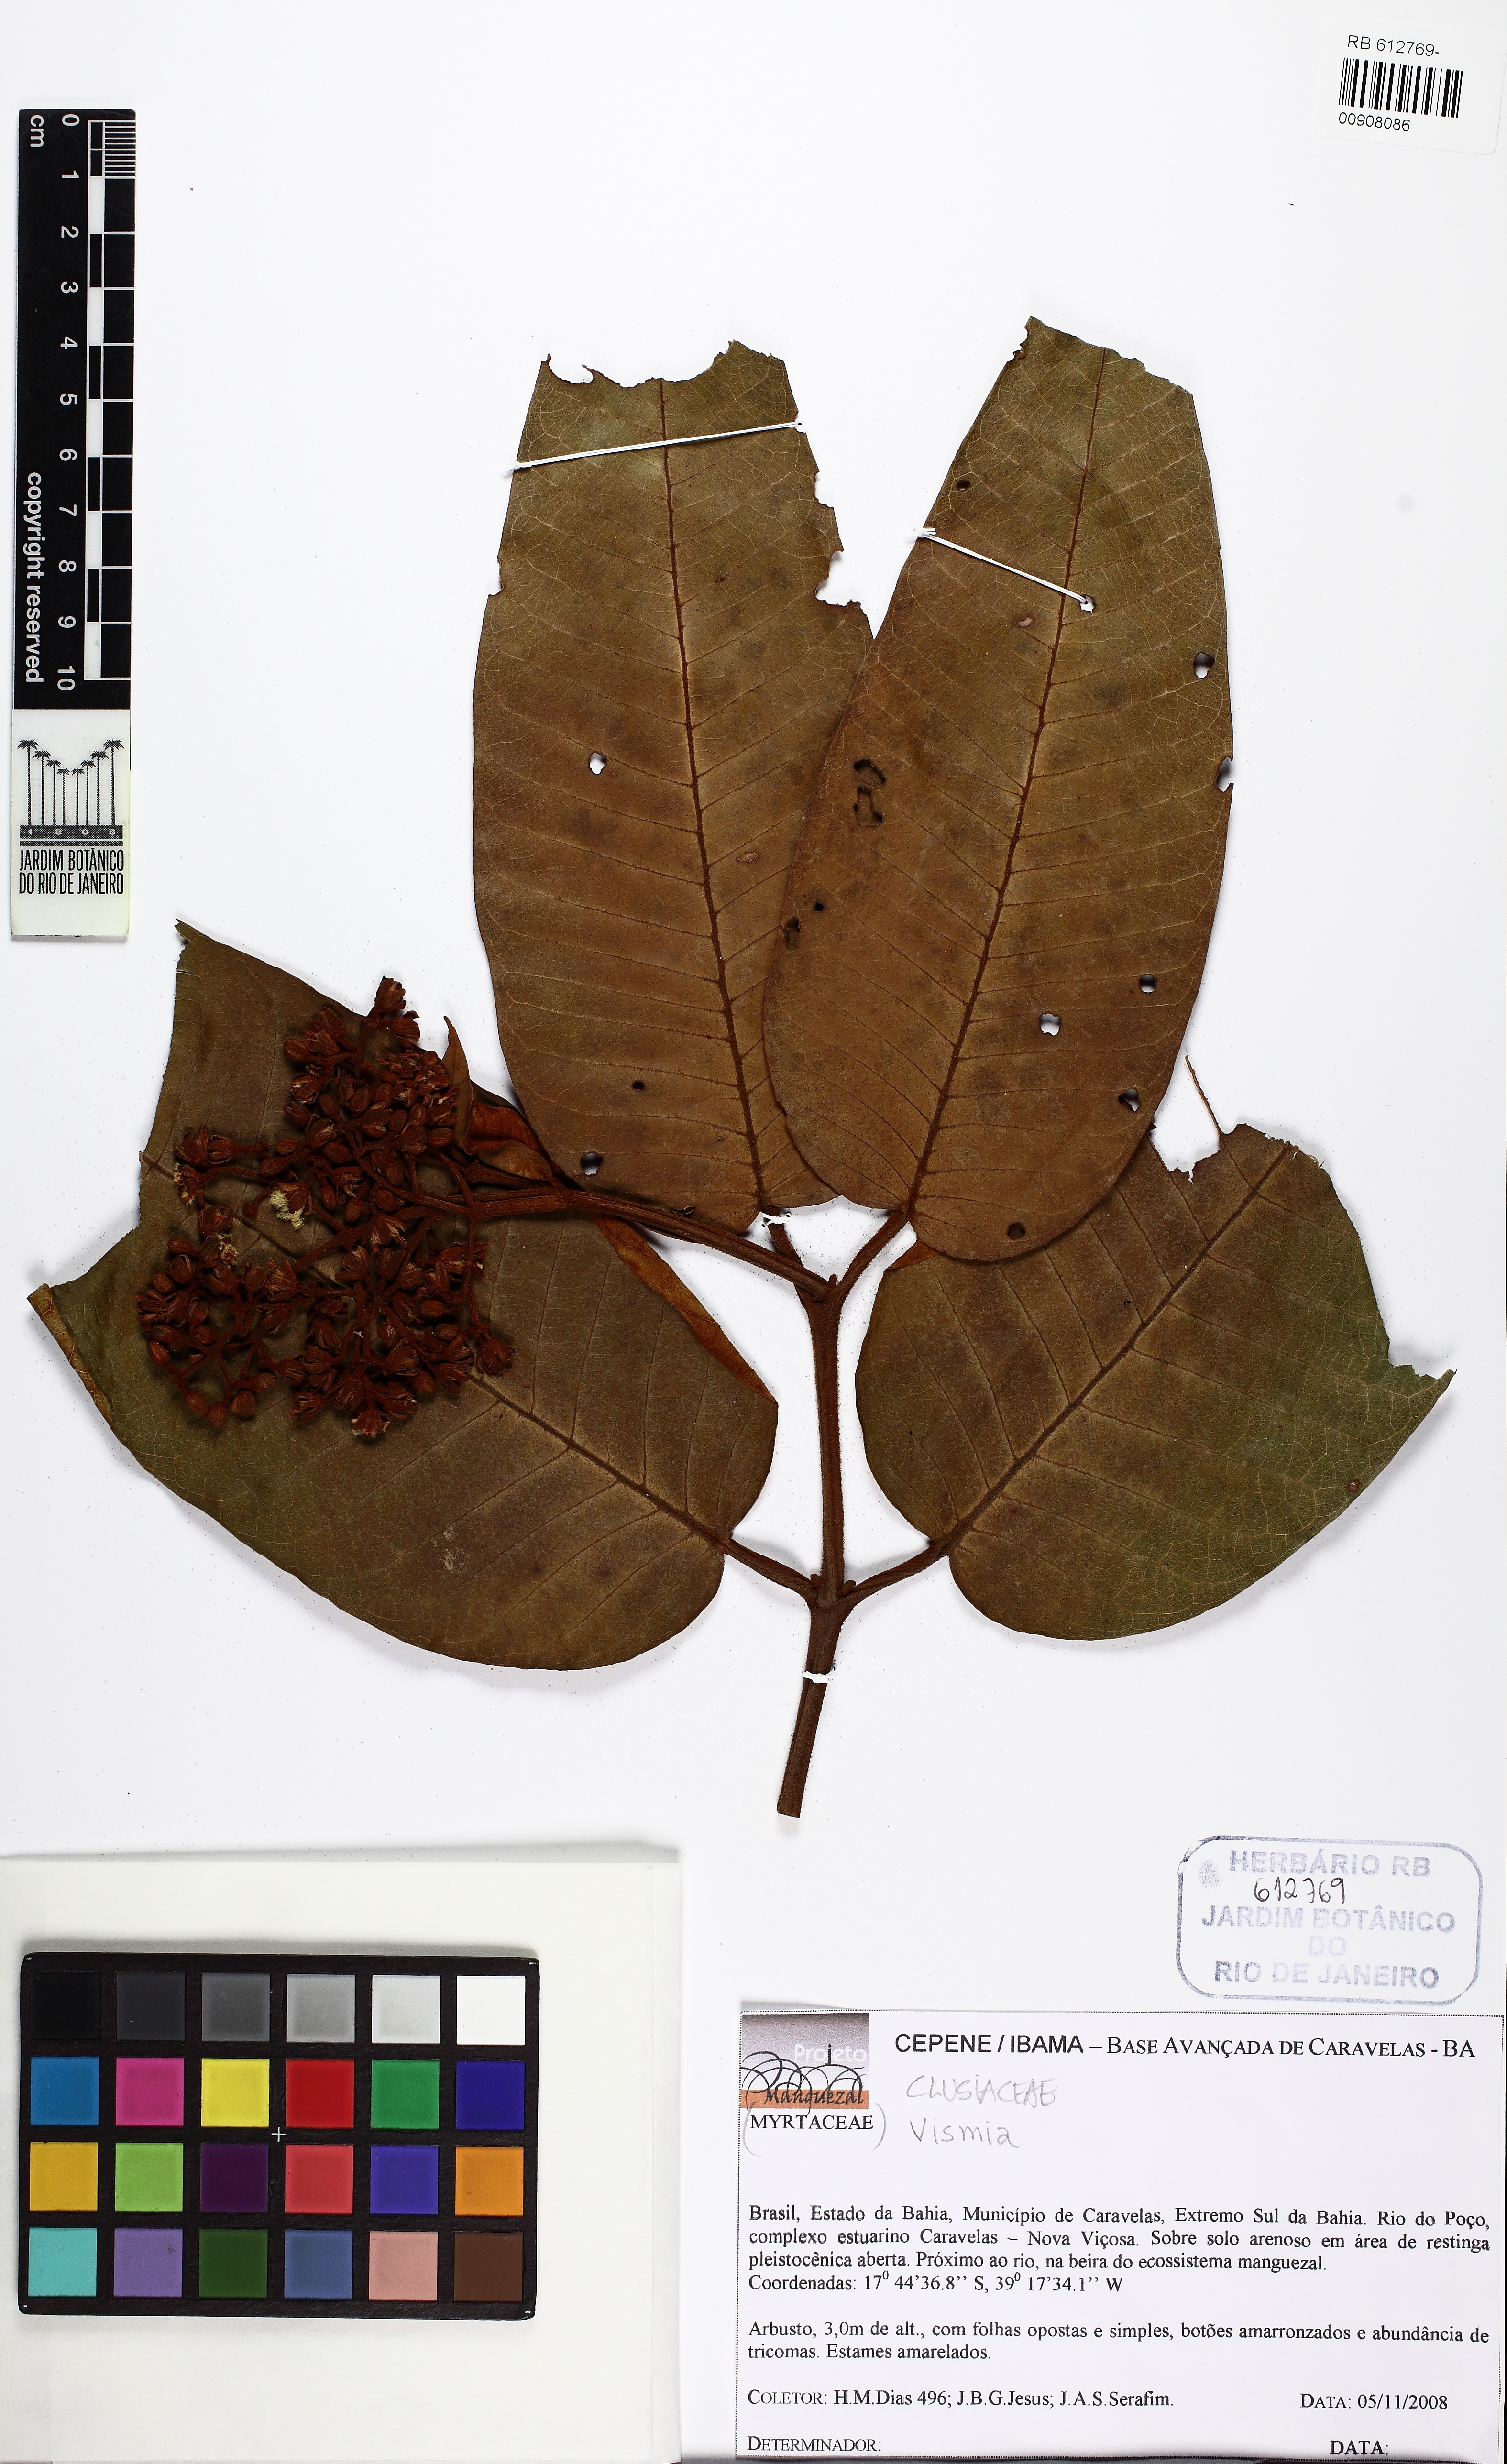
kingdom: Plantae
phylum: Tracheophyta
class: Magnoliopsida
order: Malpighiales
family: Hypericaceae
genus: Vismia
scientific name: Vismia atlantica
